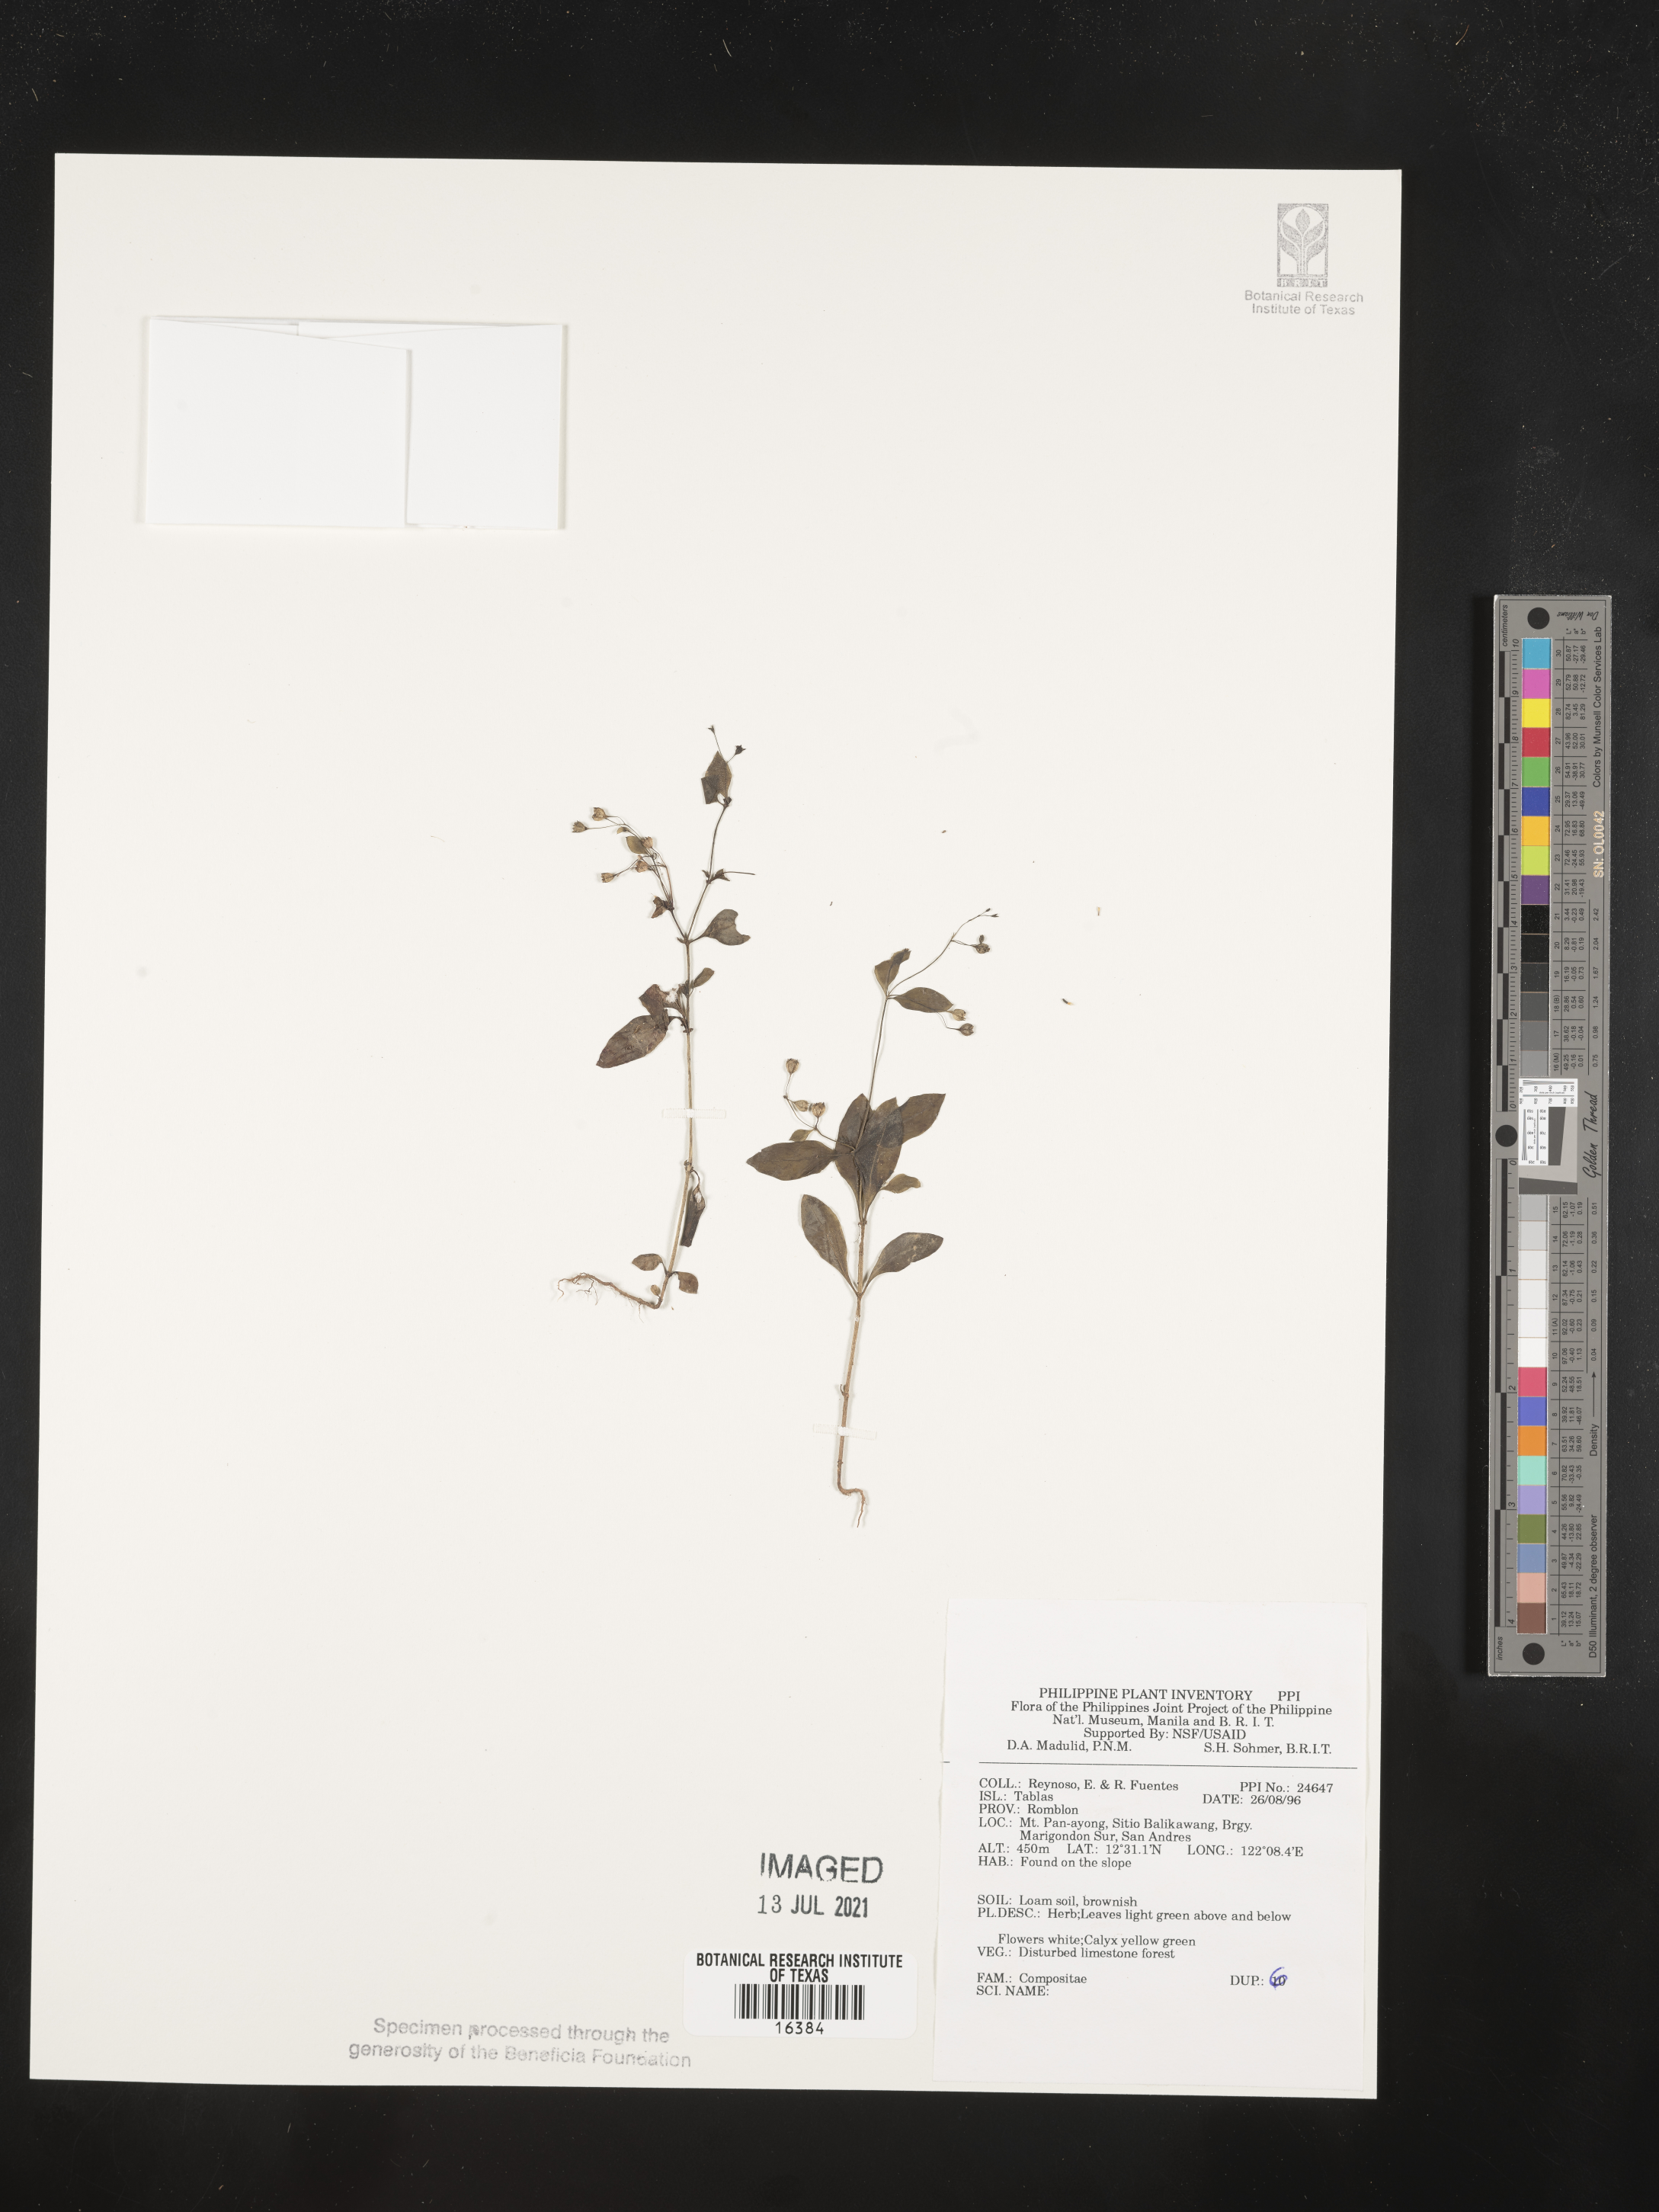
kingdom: Plantae
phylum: Tracheophyta
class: Magnoliopsida
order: Asterales
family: Asteraceae
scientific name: Asteraceae
